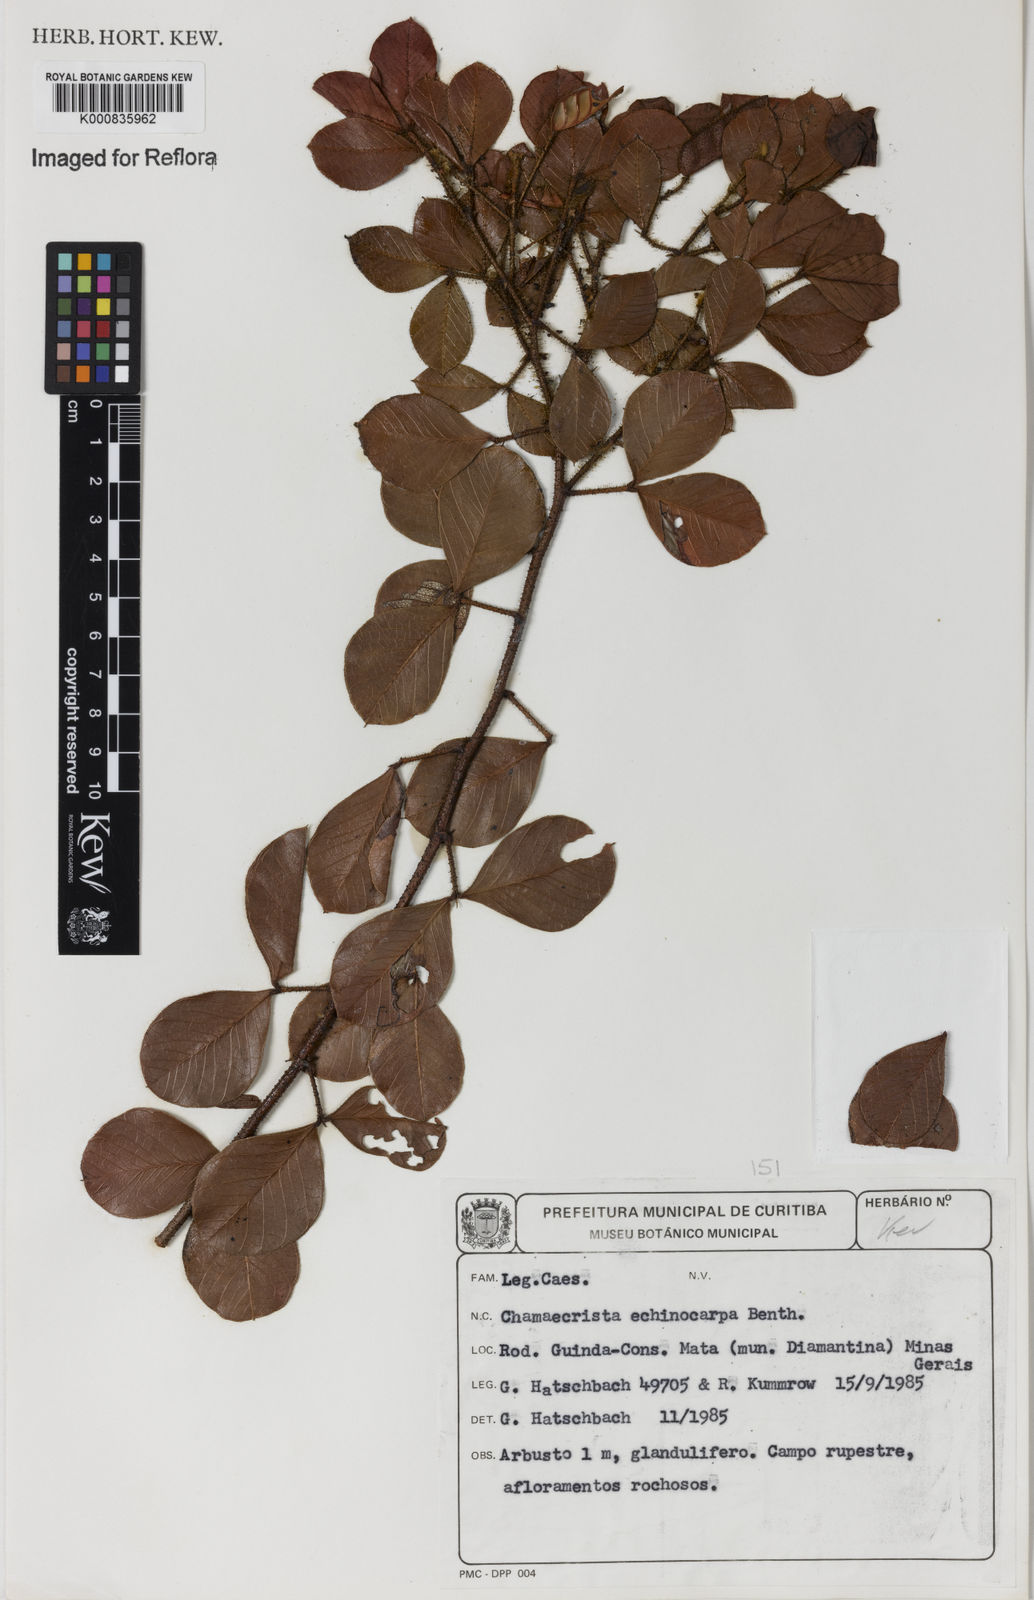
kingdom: Plantae
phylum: Tracheophyta
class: Magnoliopsida
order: Fabales
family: Fabaceae
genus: Chamaecrista
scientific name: Chamaecrista echinocarpa
